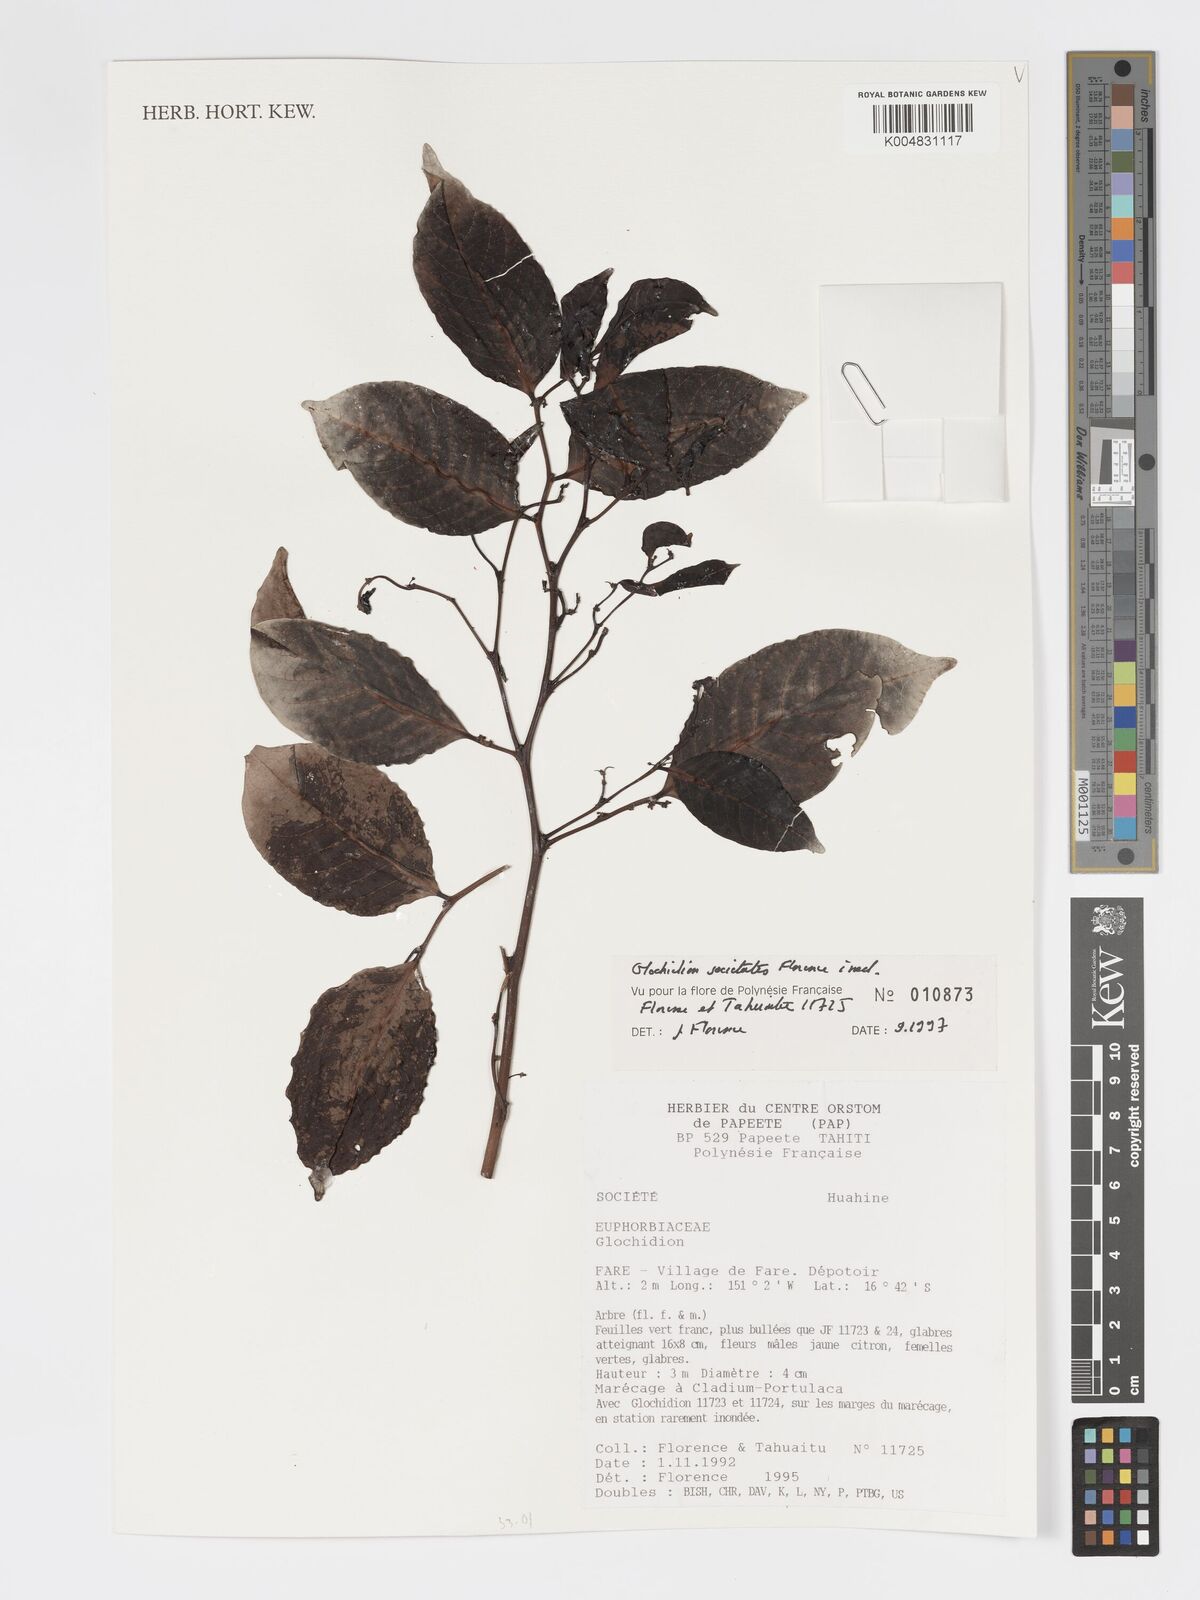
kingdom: Plantae
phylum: Tracheophyta
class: Magnoliopsida
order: Malpighiales
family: Phyllanthaceae
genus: Glochidion
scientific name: Glochidion societatis
